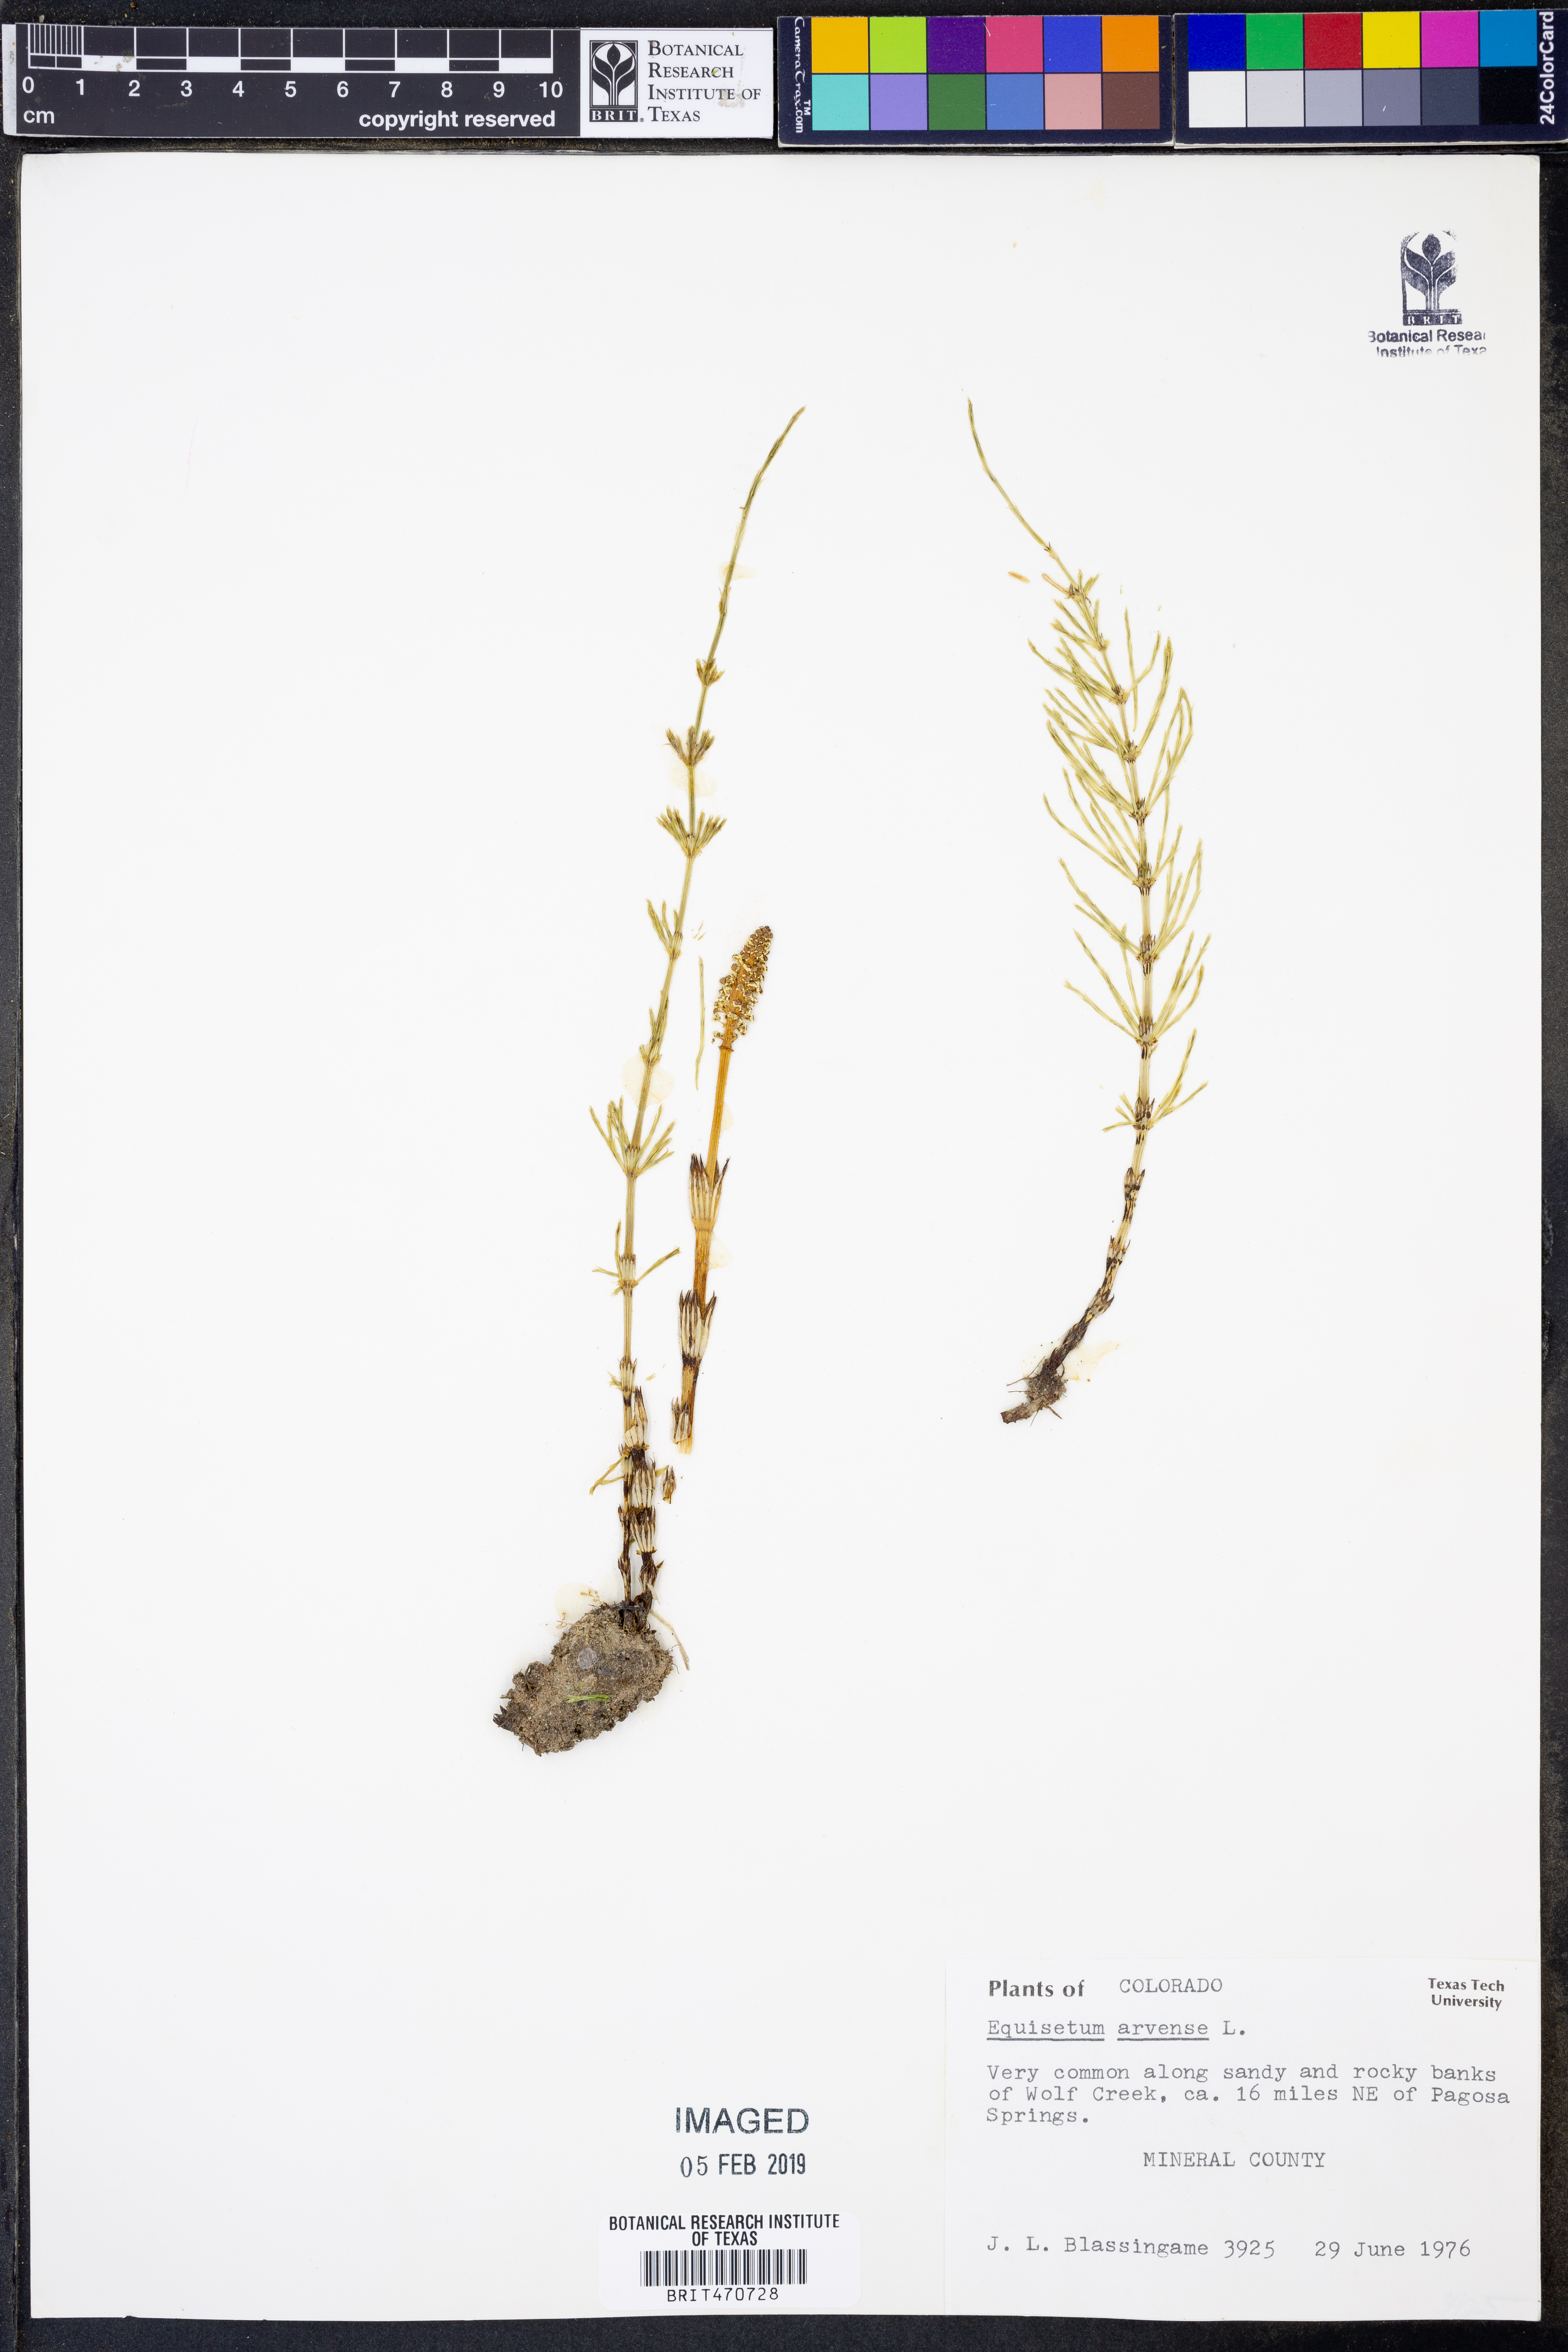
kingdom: Plantae
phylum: Tracheophyta
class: Polypodiopsida
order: Equisetales
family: Equisetaceae
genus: Equisetum
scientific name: Equisetum arvense
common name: Field horsetail
